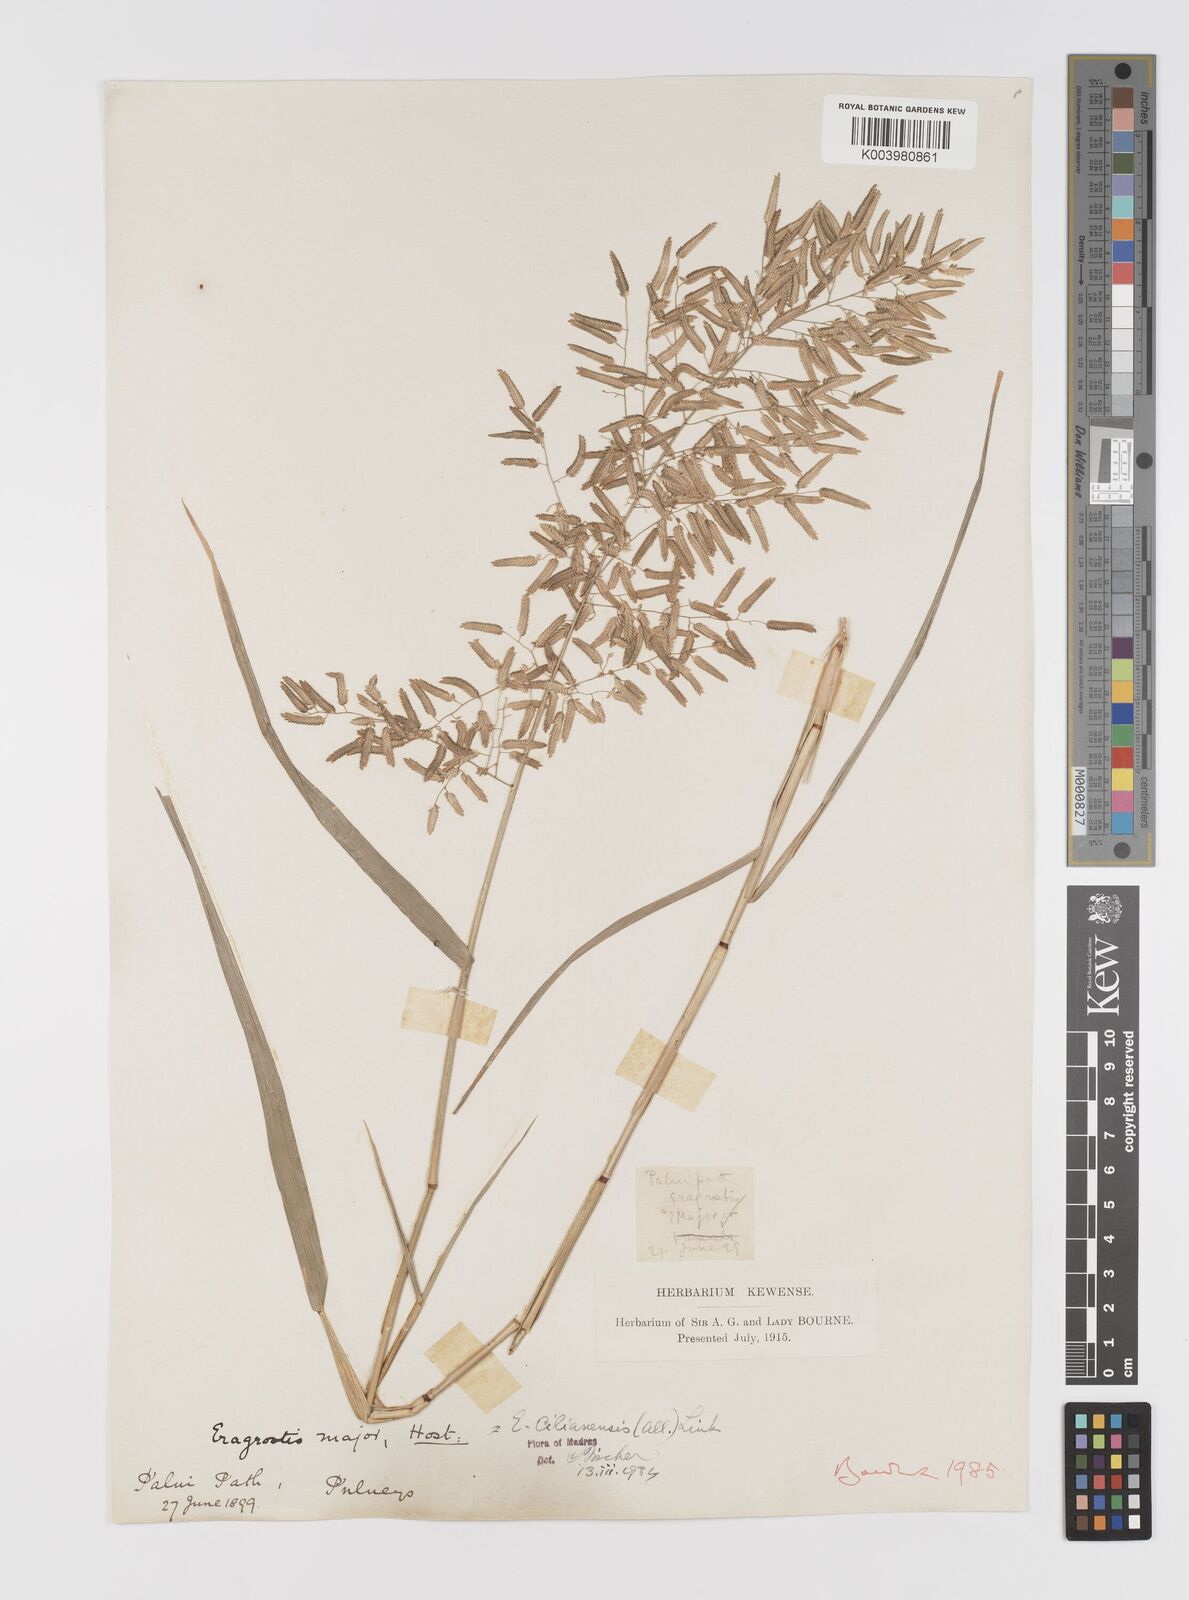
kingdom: Plantae
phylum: Tracheophyta
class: Liliopsida
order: Poales
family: Poaceae
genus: Eragrostis
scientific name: Eragrostis cilianensis
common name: Stinkgrass
